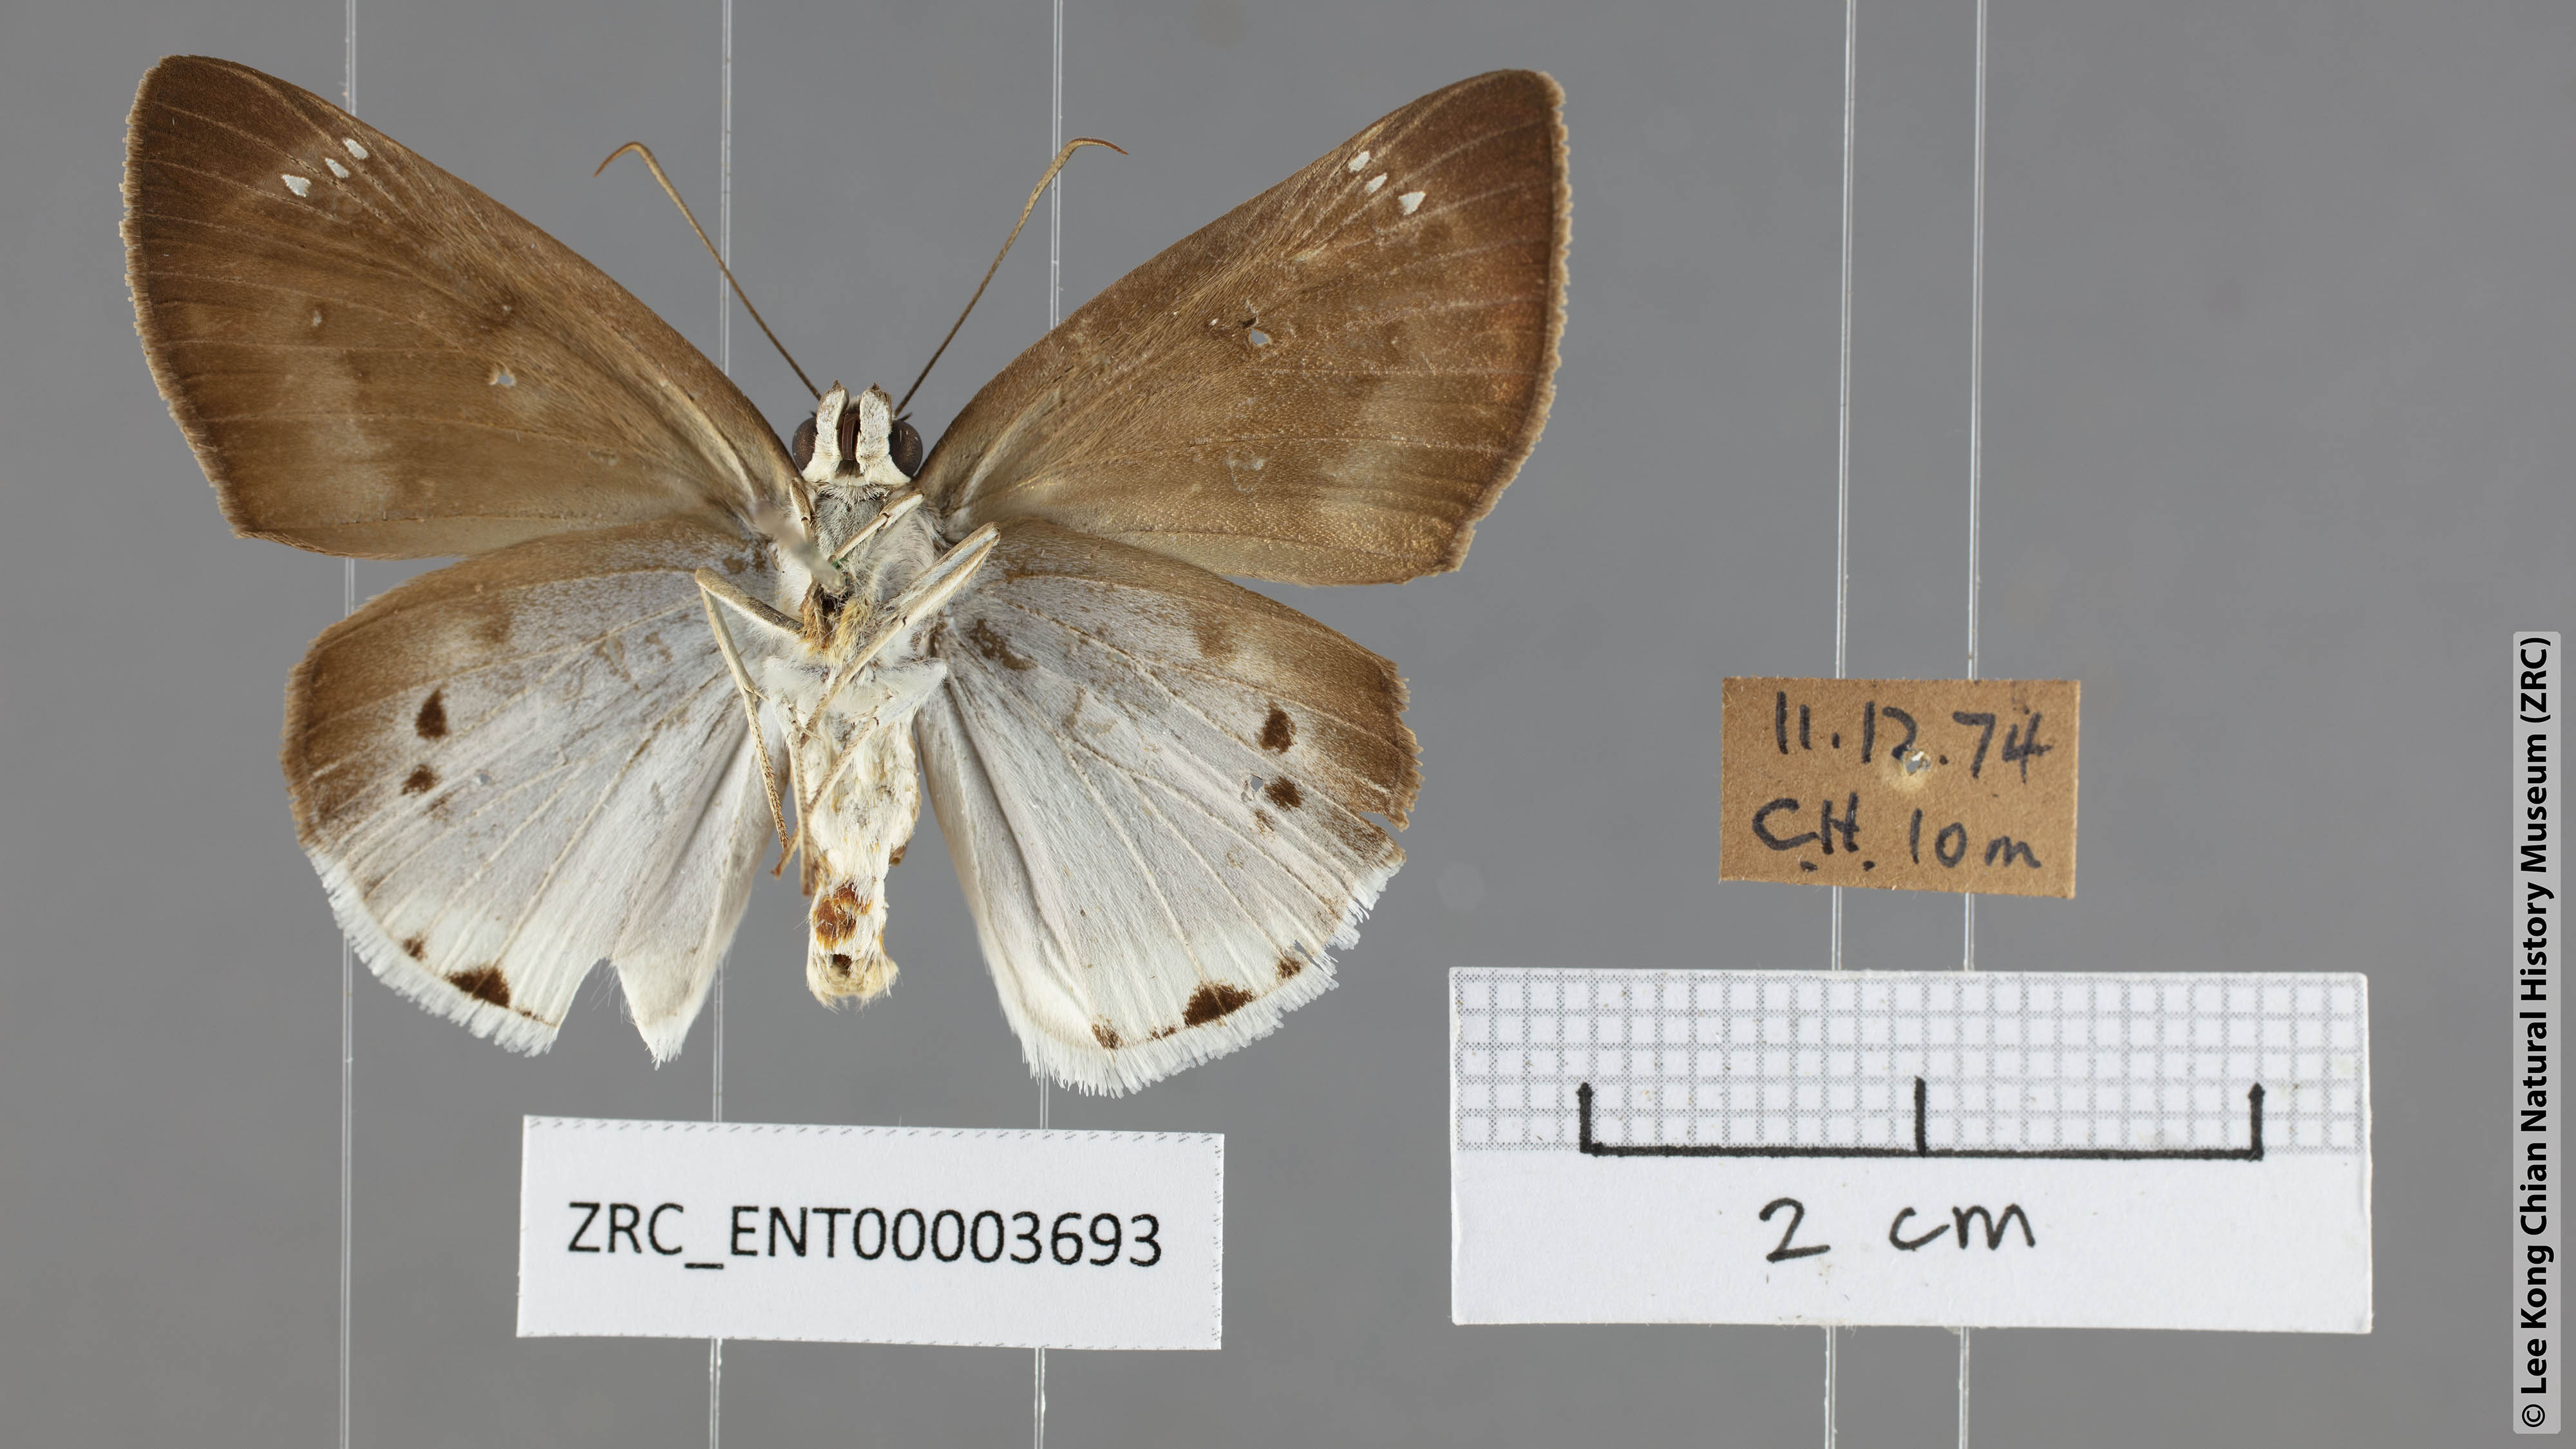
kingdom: Animalia
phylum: Arthropoda
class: Insecta
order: Lepidoptera
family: Hesperiidae
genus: Tagiades
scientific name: Tagiades gana
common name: Suffused snow flat
